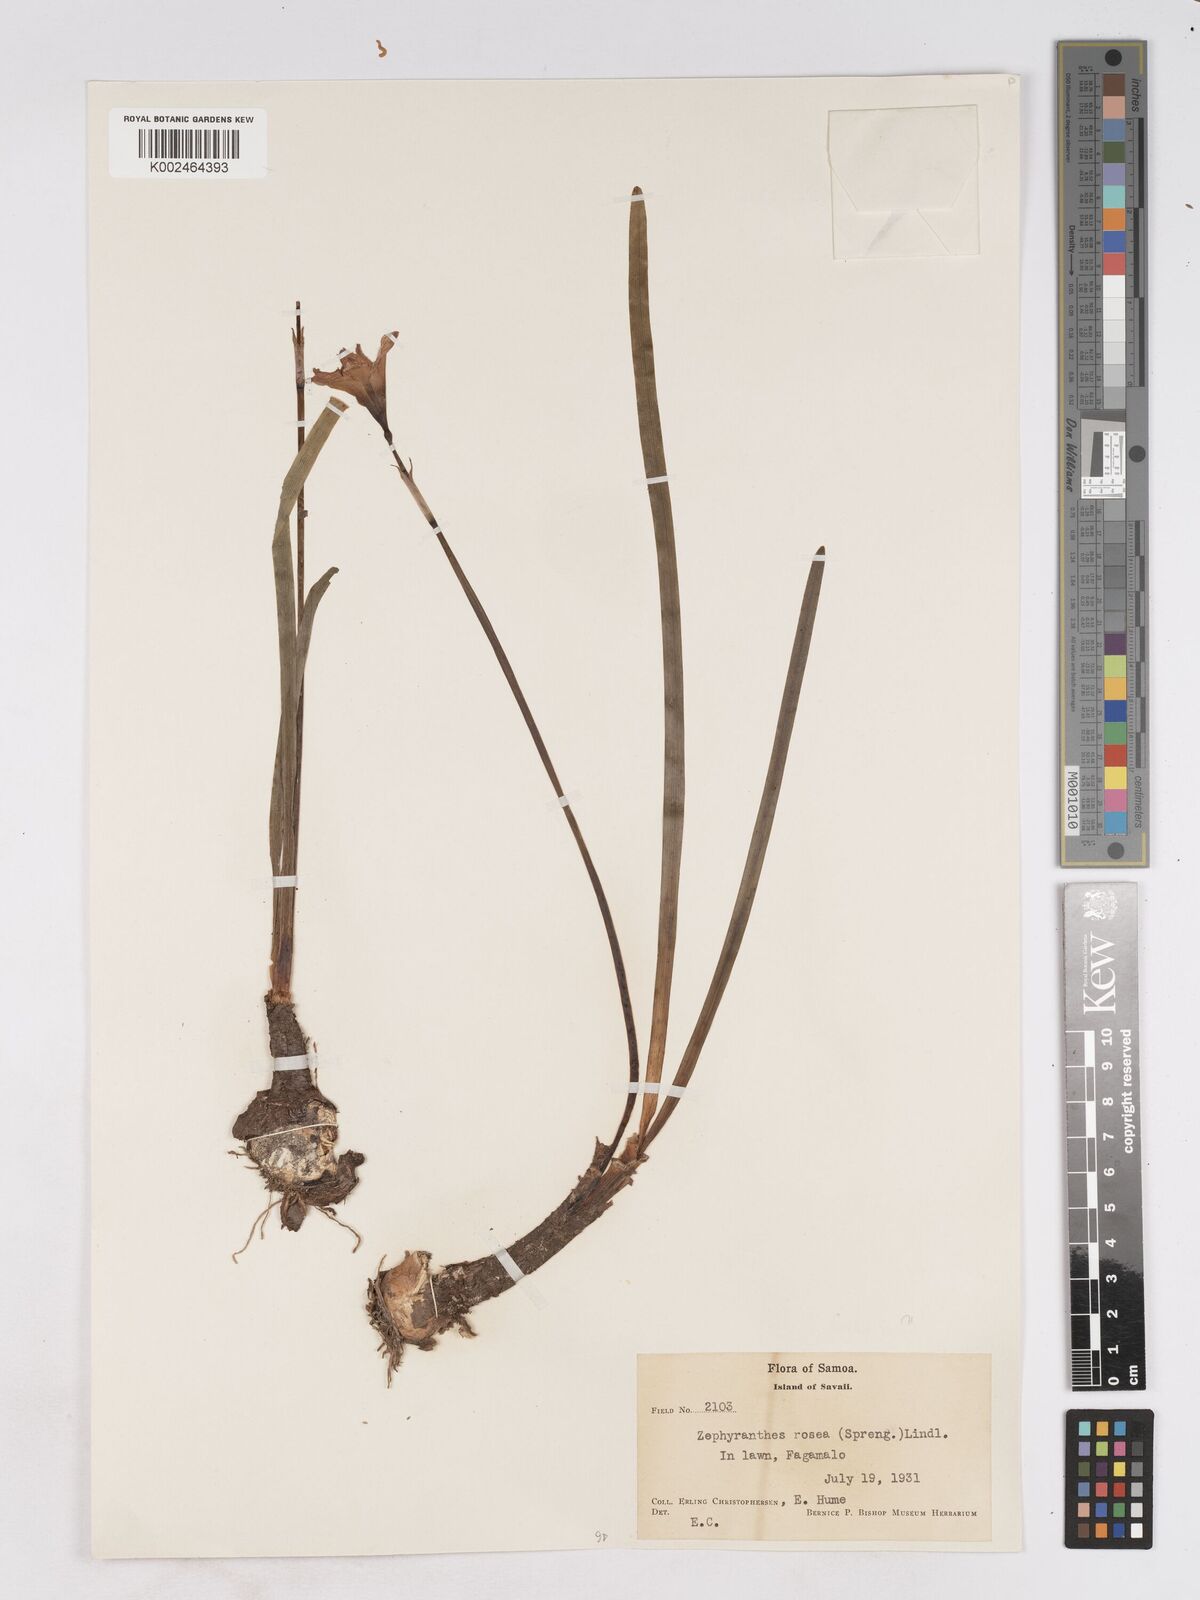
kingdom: Plantae
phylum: Tracheophyta
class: Liliopsida
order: Asparagales
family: Amaryllidaceae
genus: Zephyranthes
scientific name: Zephyranthes rosea
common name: Cuban zephyrlily
